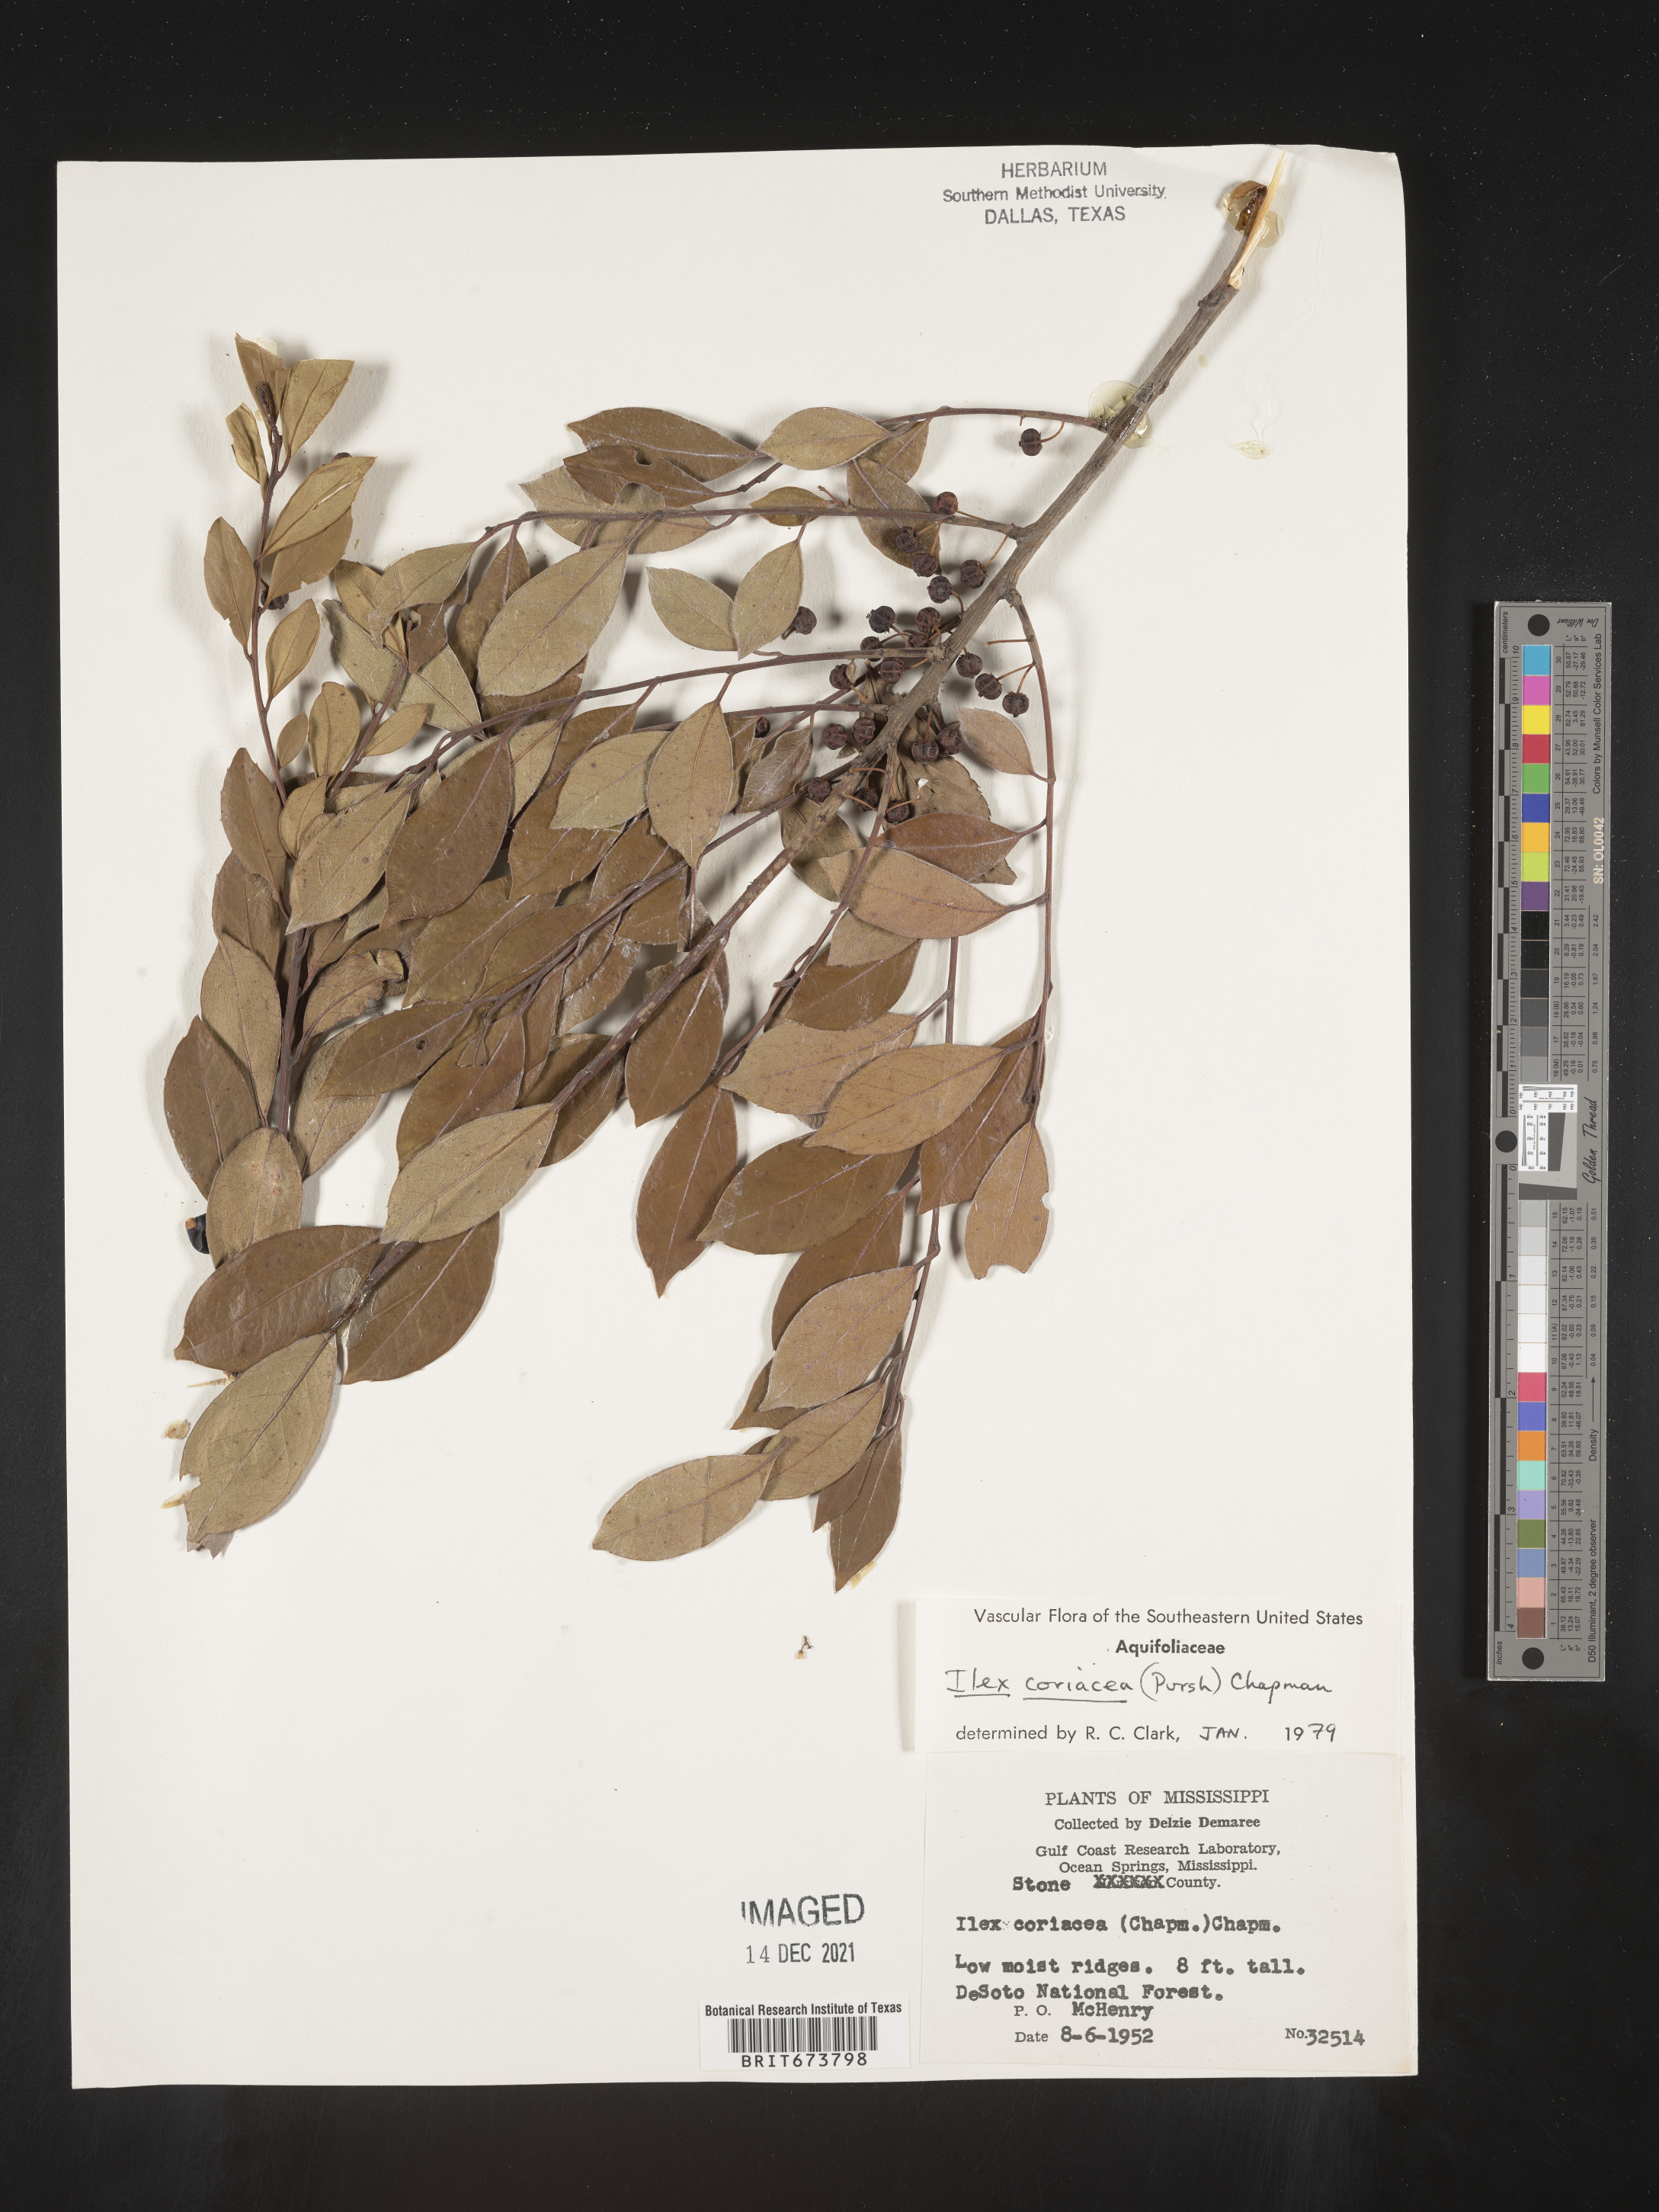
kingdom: Plantae
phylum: Tracheophyta
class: Magnoliopsida
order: Aquifoliales
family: Aquifoliaceae
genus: Ilex
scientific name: Ilex coriacea
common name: Sweet gallberry
